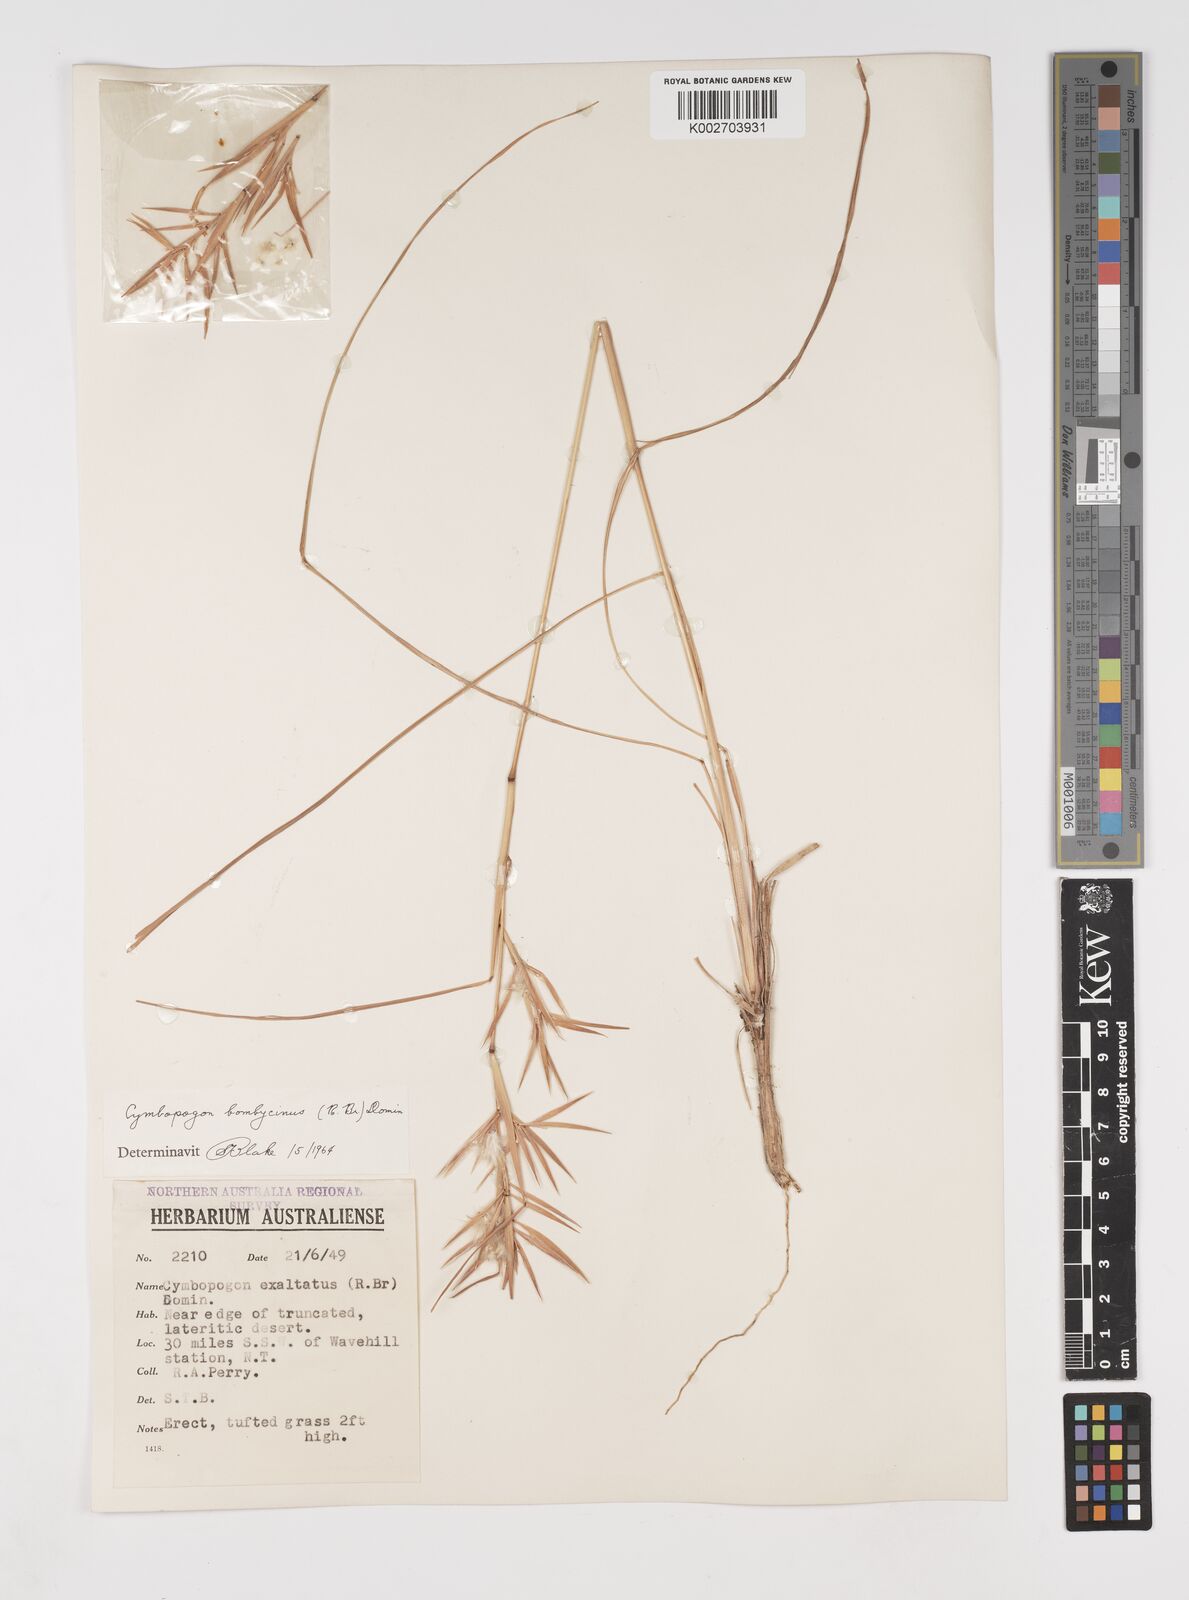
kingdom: Plantae
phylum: Tracheophyta
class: Liliopsida
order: Poales
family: Poaceae
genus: Cymbopogon
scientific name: Cymbopogon obtectus
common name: Silky heads
